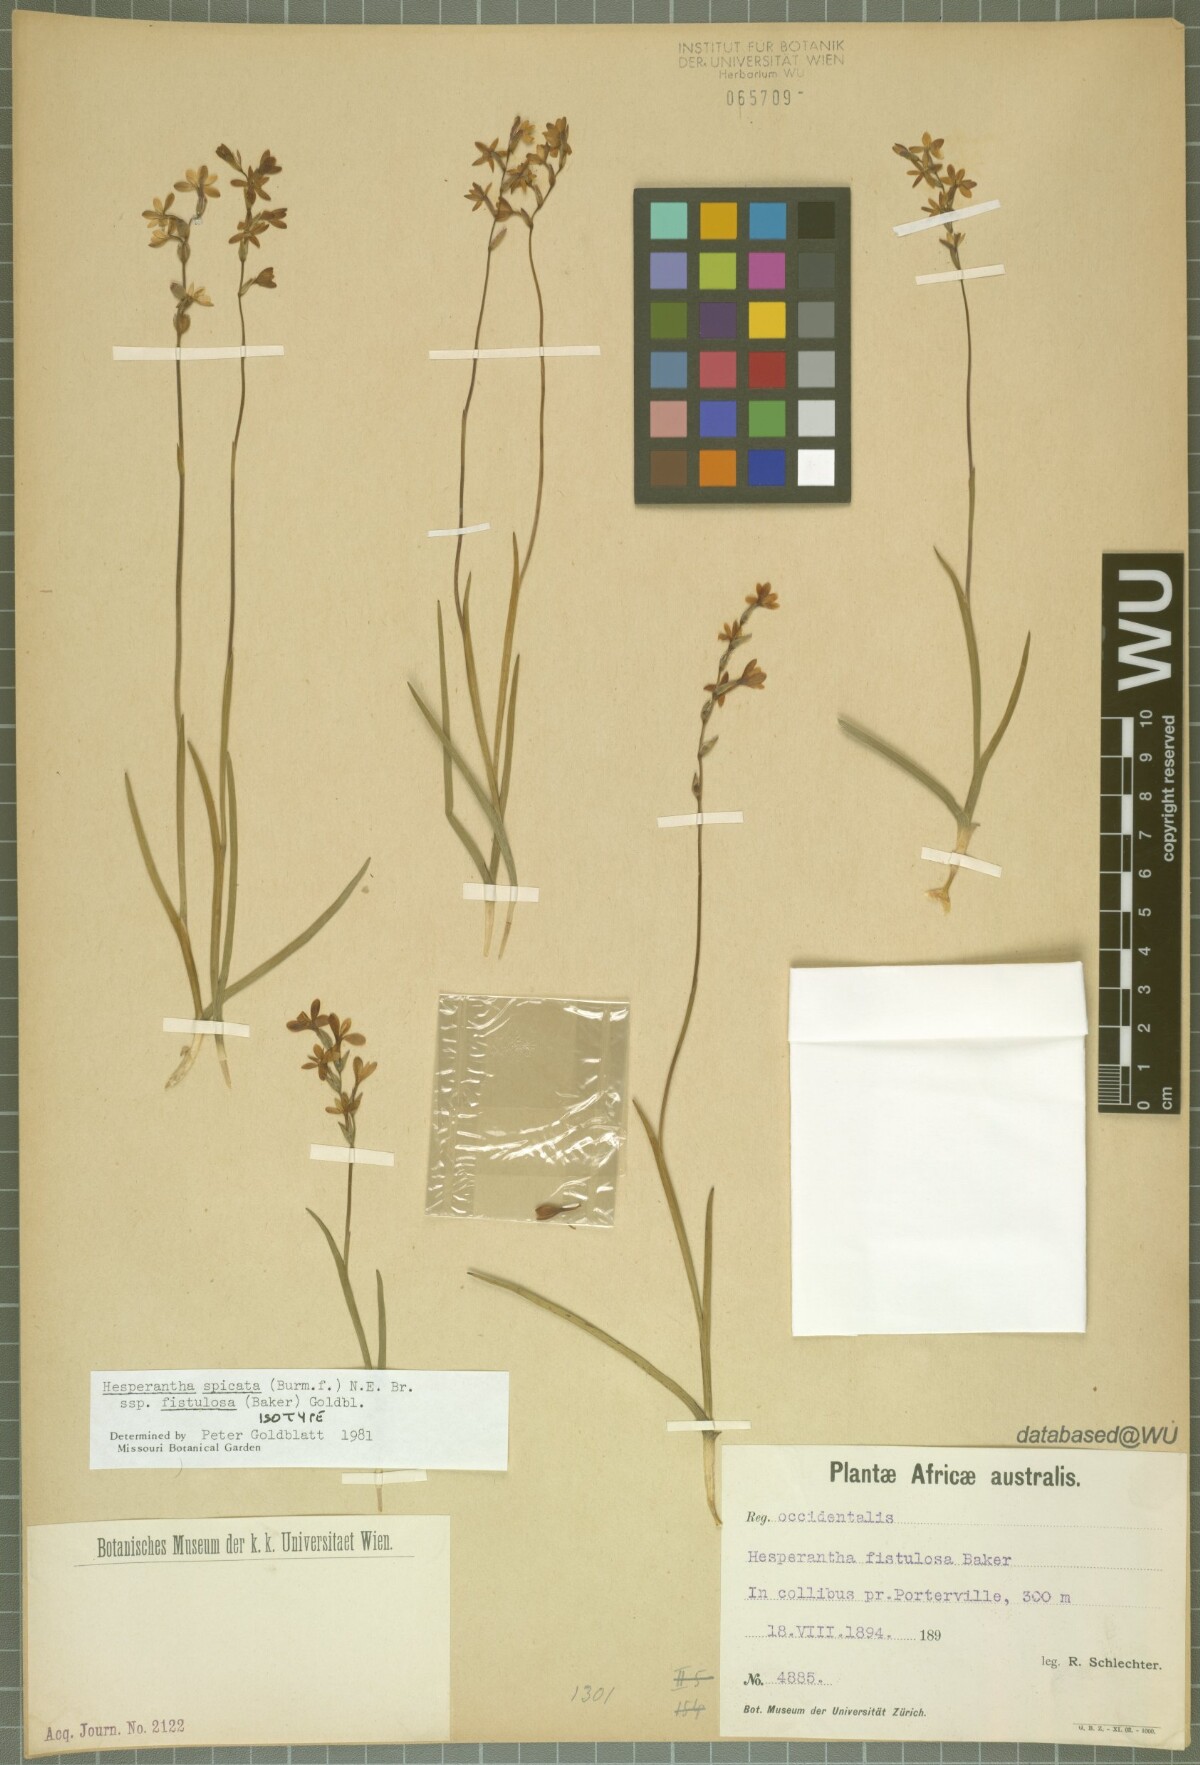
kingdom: Plantae
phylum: Tracheophyta
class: Liliopsida
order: Asparagales
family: Iridaceae
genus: Hesperantha
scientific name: Hesperantha spicata
